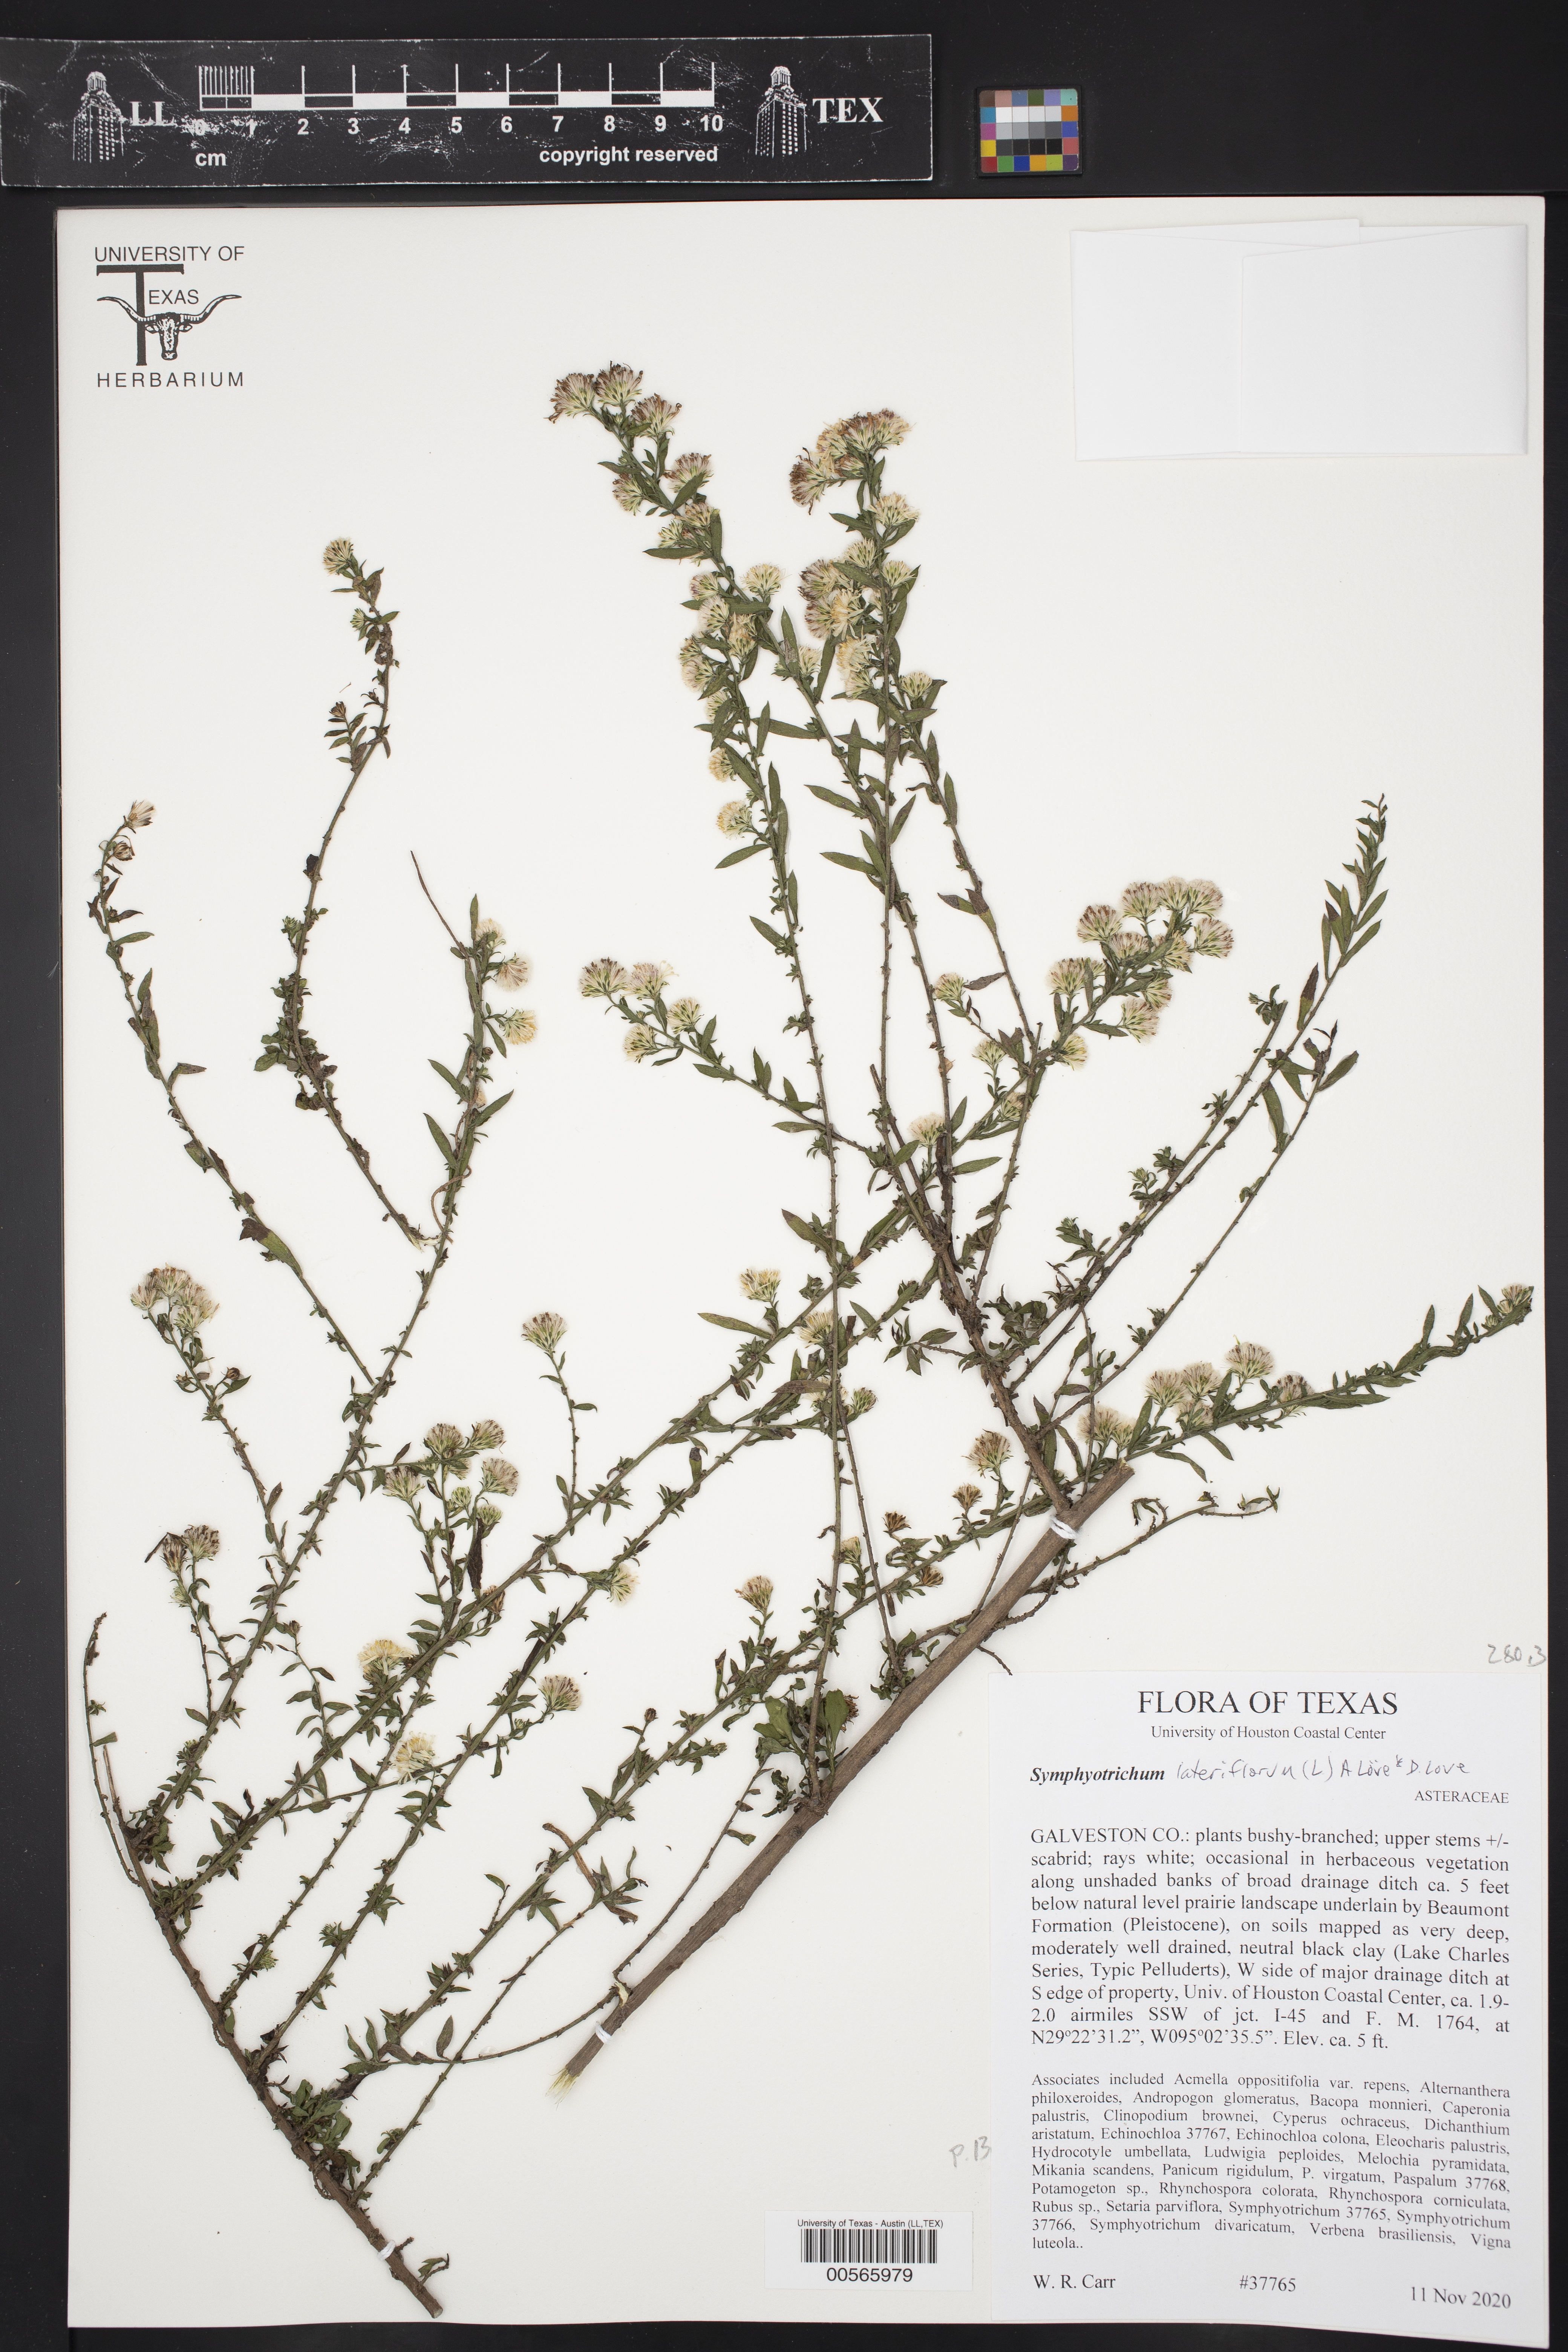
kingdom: Plantae
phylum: Tracheophyta
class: Magnoliopsida
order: Asterales
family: Asteraceae
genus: Symphyotrichum
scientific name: Symphyotrichum lateriflorum
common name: Calico aster
